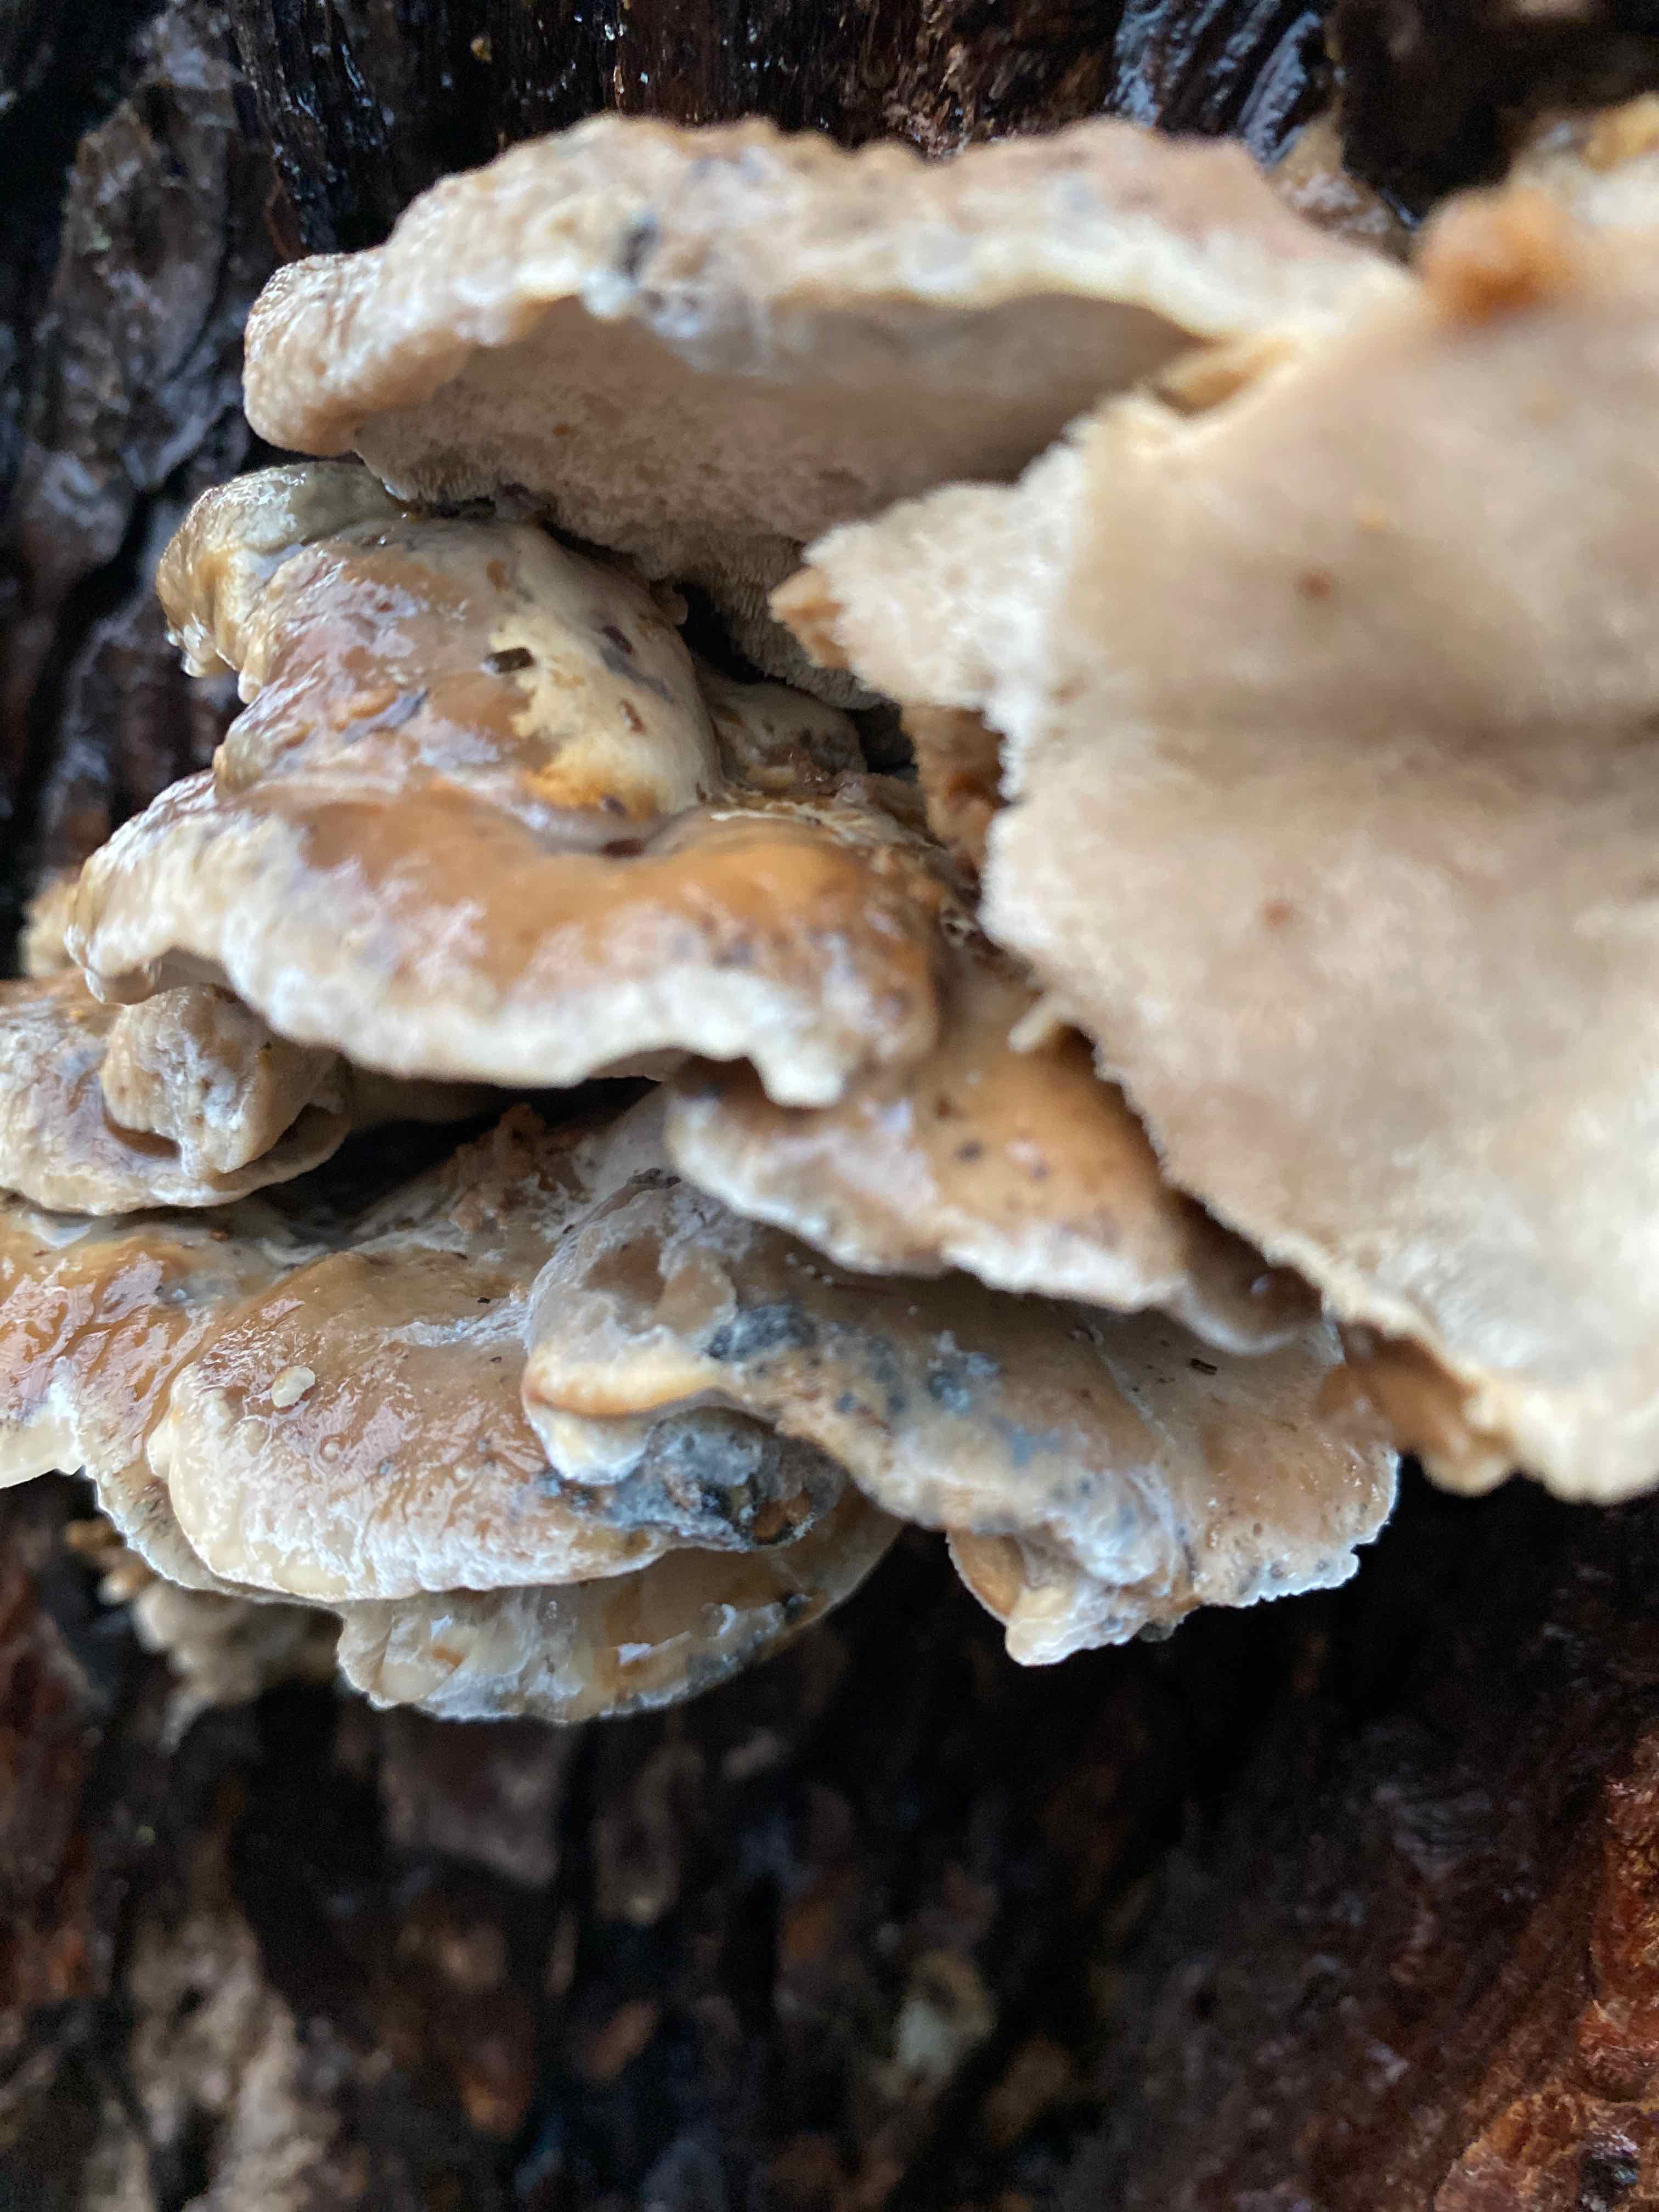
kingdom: Fungi
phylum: Basidiomycota
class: Agaricomycetes
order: Polyporales
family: Polyporaceae
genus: Trametes
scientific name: Trametes ochracea
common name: bæltet læderporesvamp
